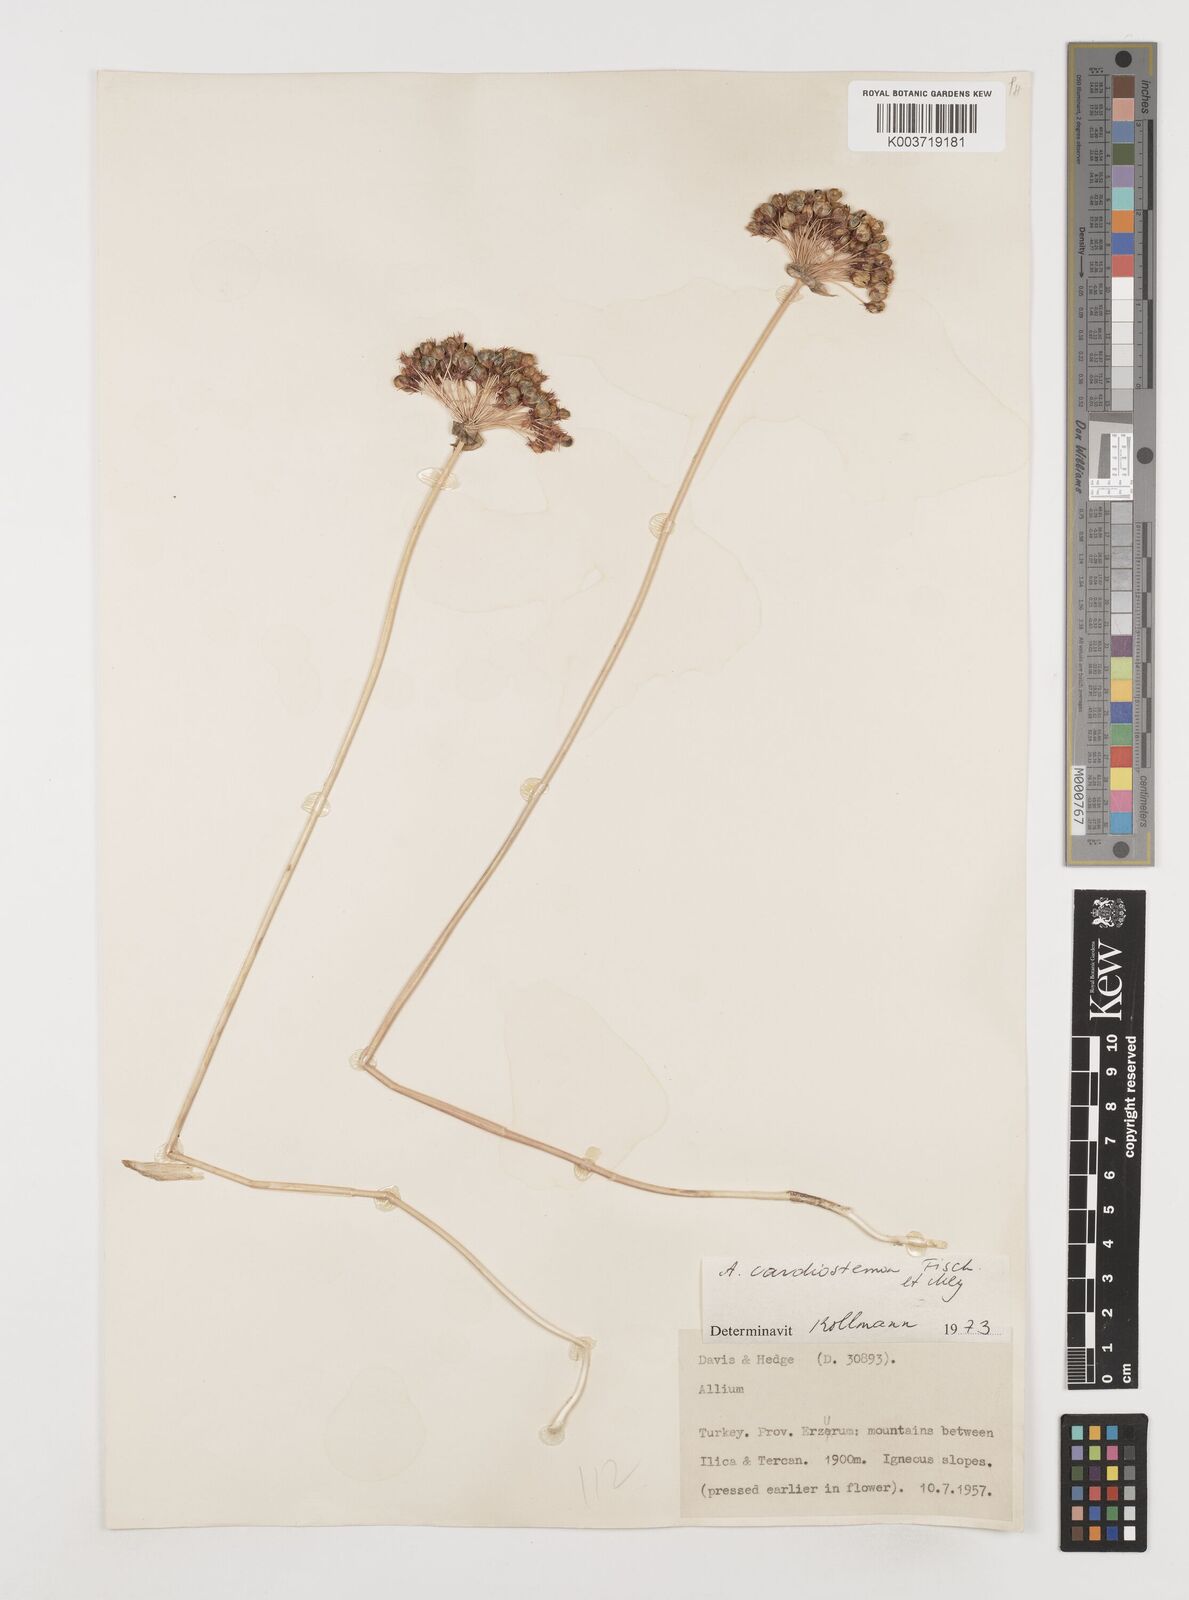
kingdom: Plantae
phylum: Tracheophyta
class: Liliopsida
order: Asparagales
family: Amaryllidaceae
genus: Allium
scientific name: Allium cardiostemon
